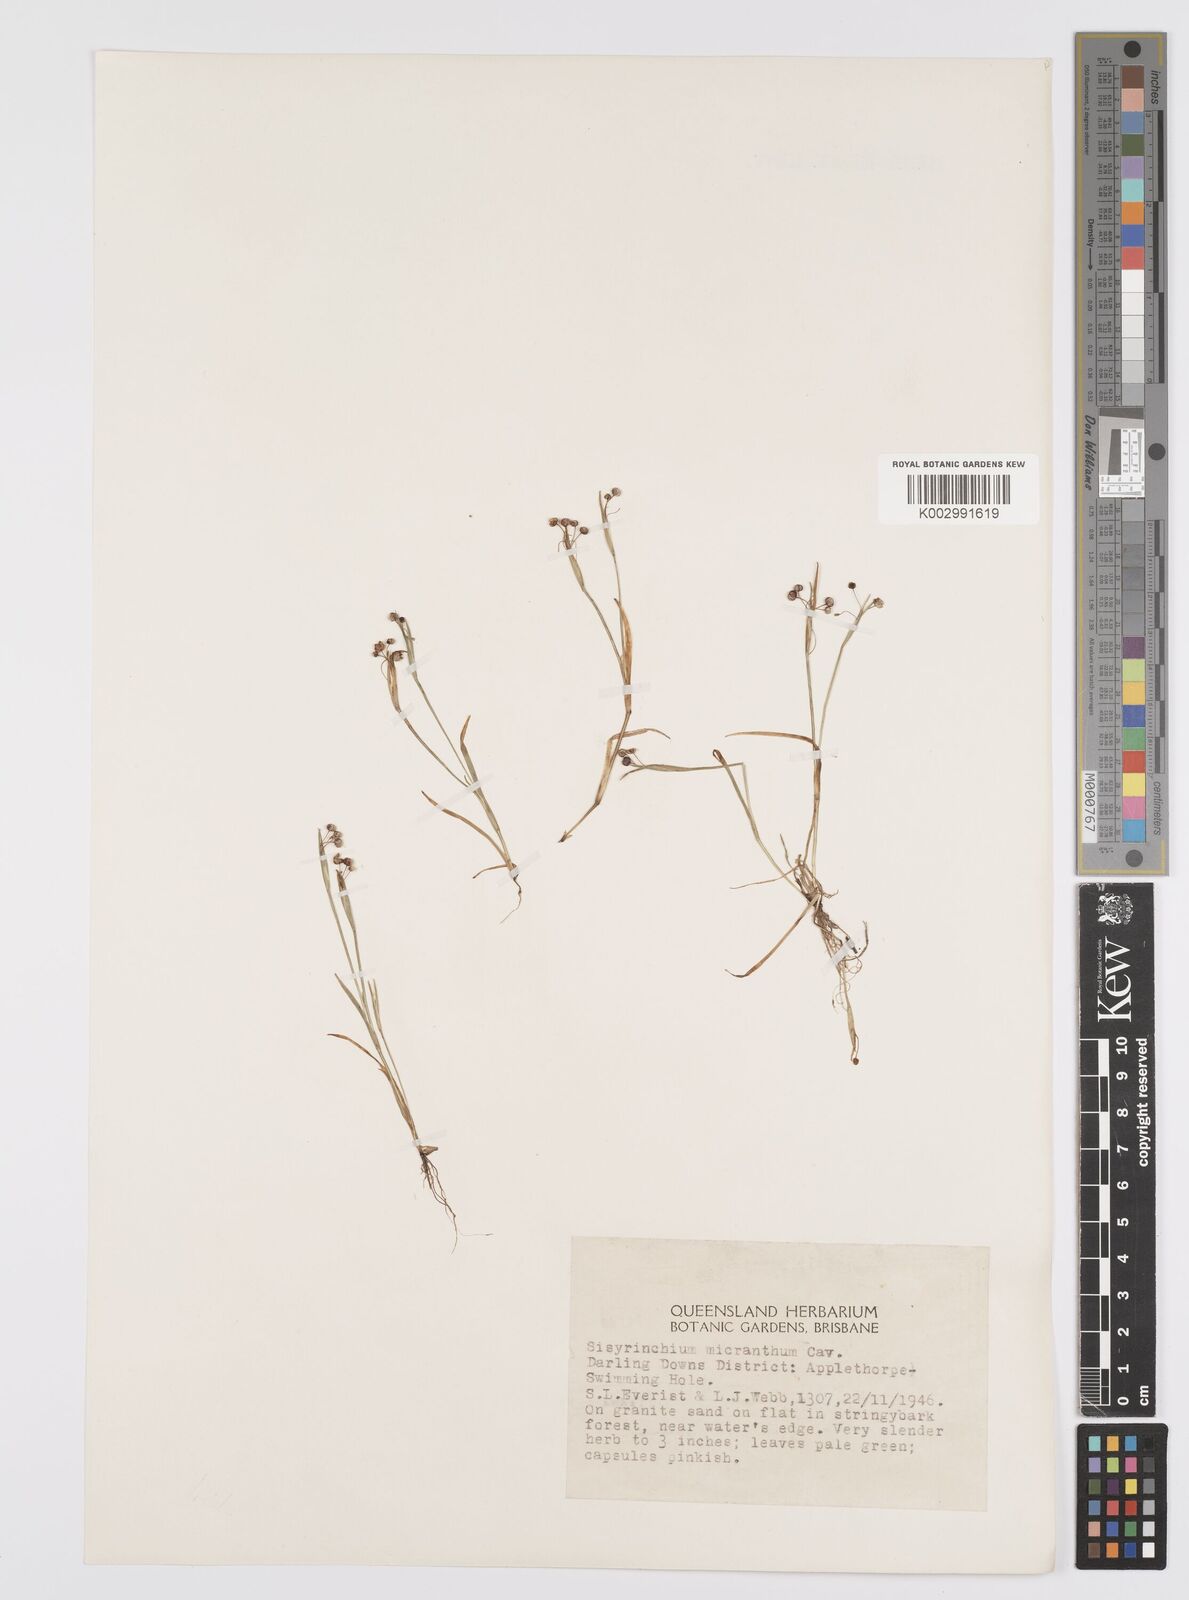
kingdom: Plantae
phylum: Tracheophyta
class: Liliopsida
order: Asparagales
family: Iridaceae
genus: Sisyrinchium
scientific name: Sisyrinchium micranthum
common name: Bermuda pigroot
